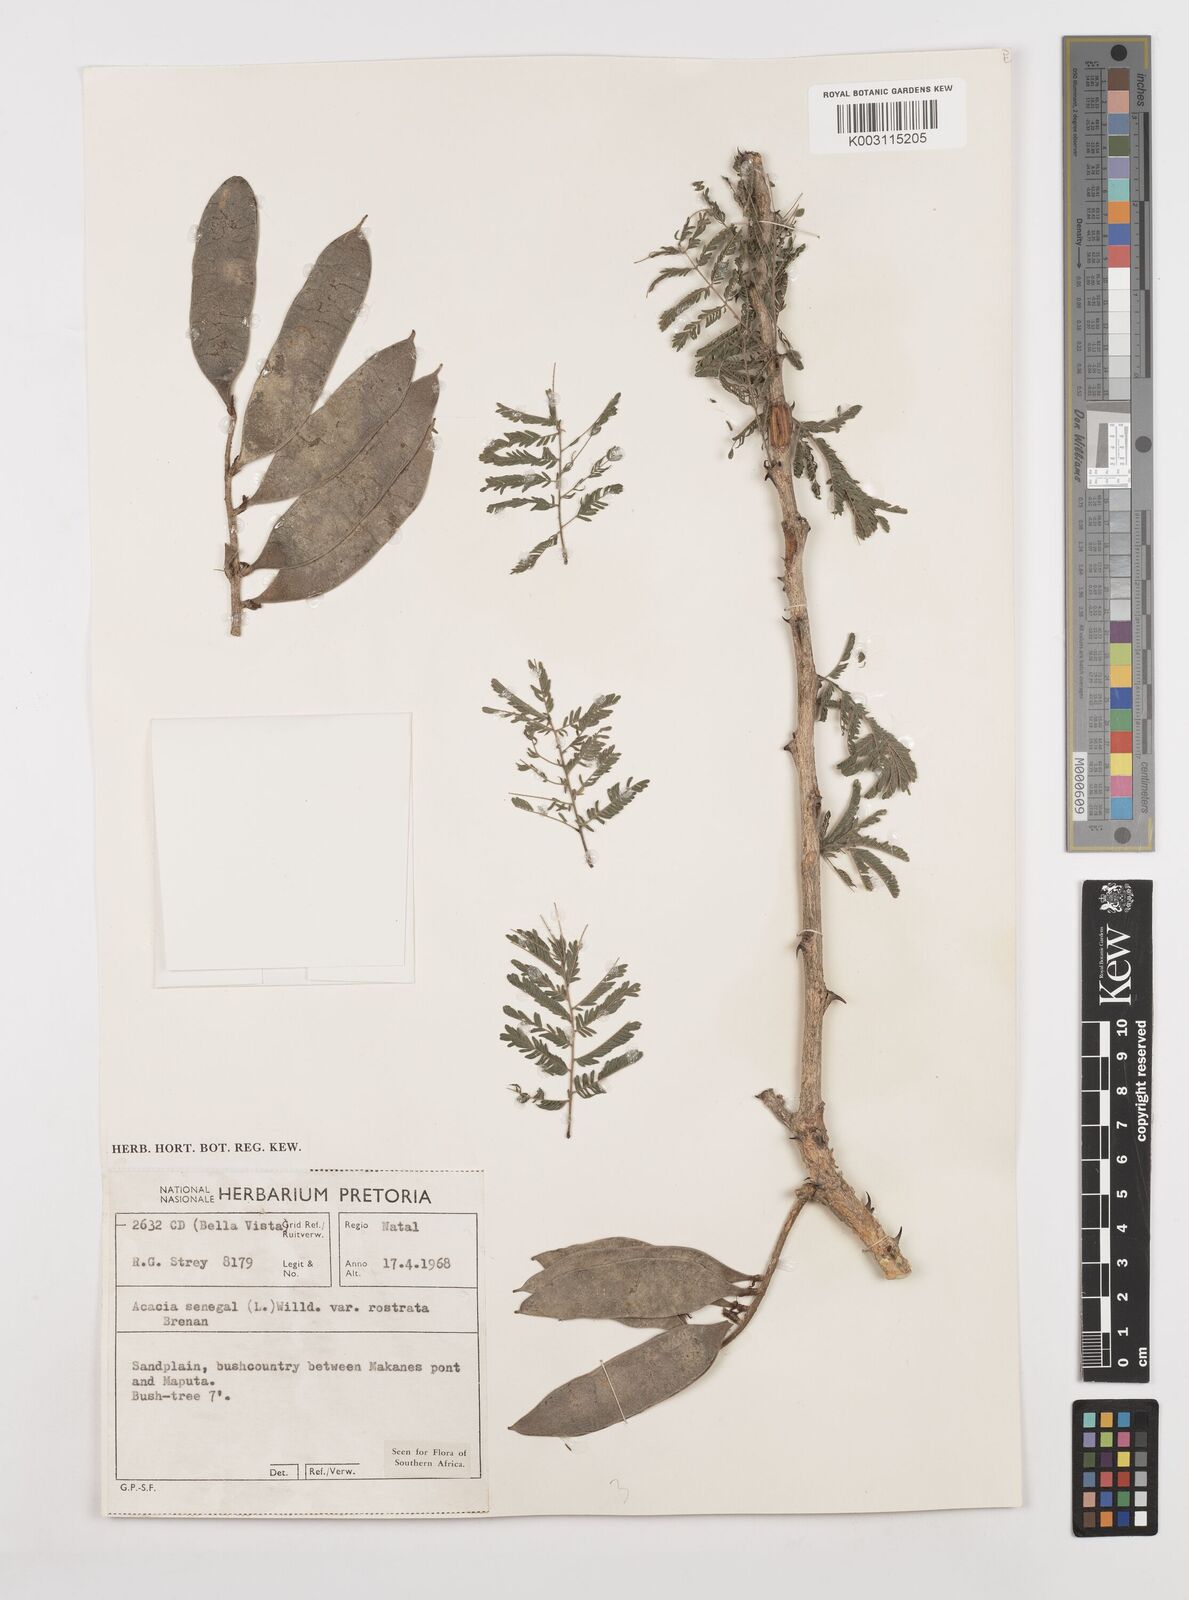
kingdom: Plantae
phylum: Tracheophyta
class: Magnoliopsida
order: Fabales
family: Fabaceae
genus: Senegalia
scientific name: Senegalia senegal
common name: Senegal-gum
